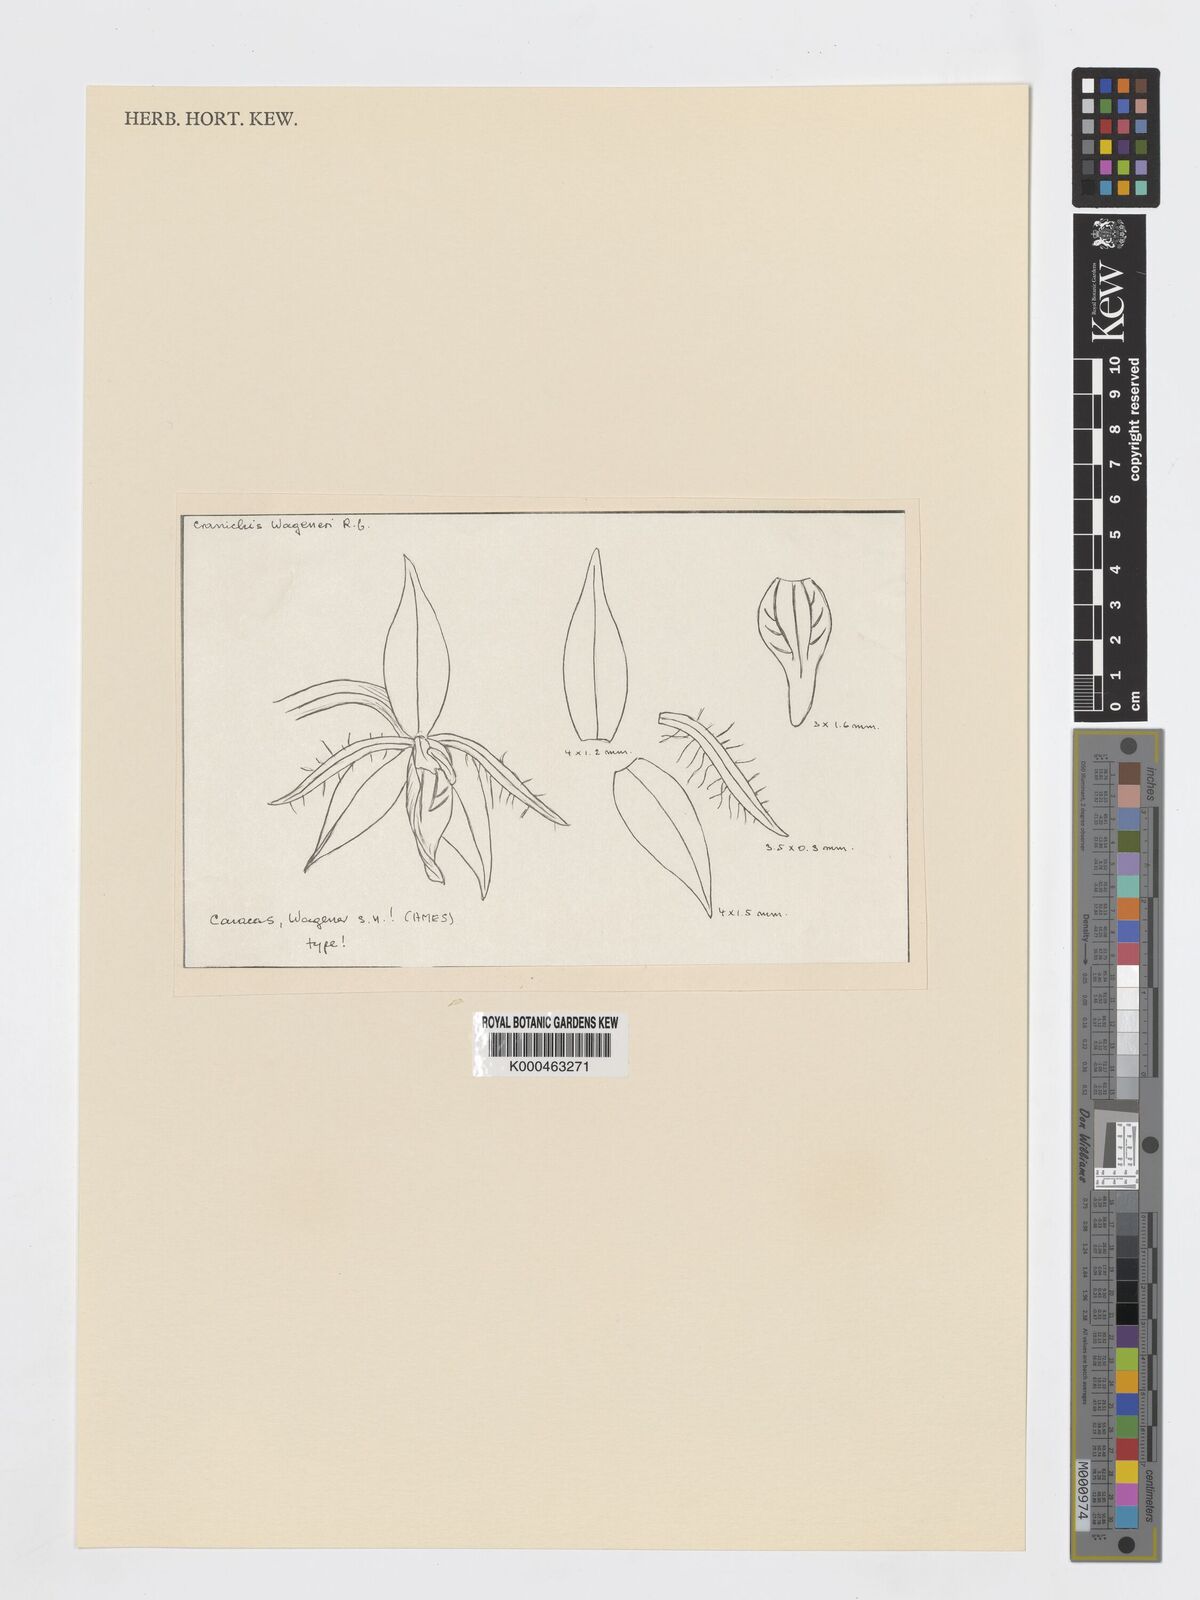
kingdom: Plantae
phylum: Tracheophyta
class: Liliopsida
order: Asparagales
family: Orchidaceae
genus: Cranichis
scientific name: Cranichis
